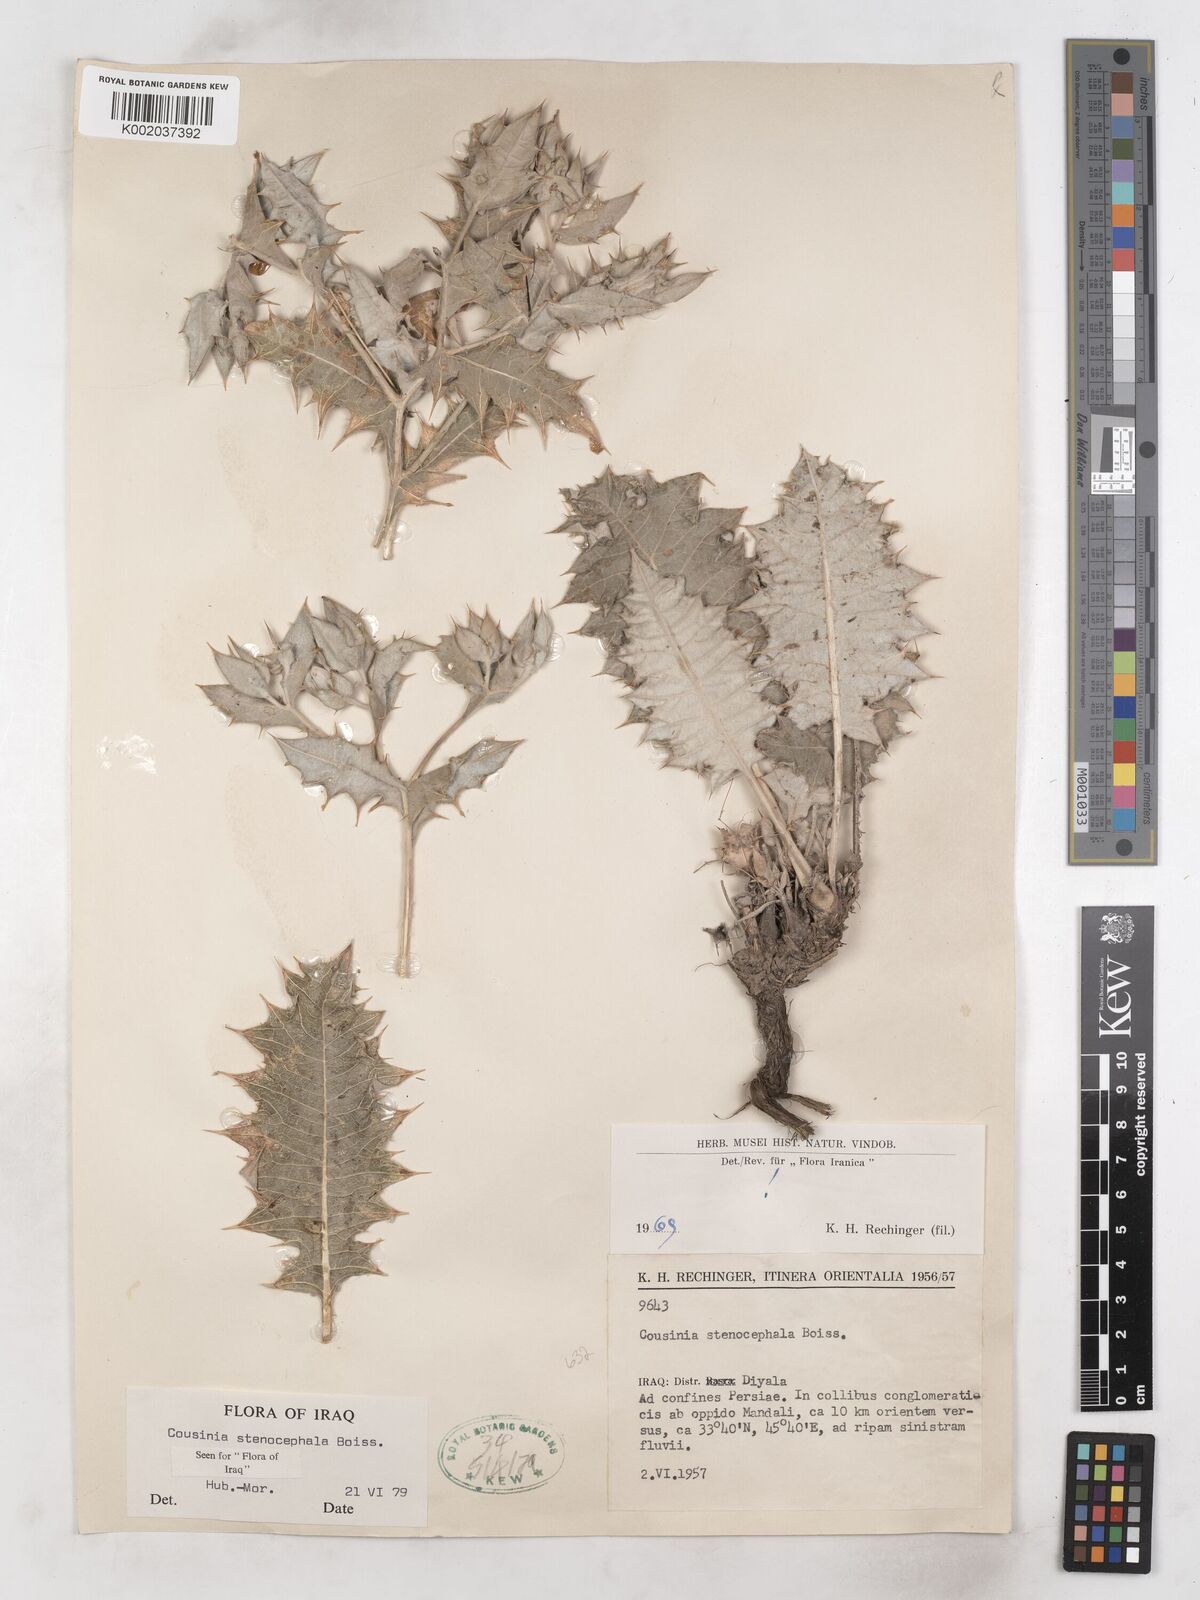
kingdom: Plantae
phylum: Tracheophyta
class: Magnoliopsida
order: Asterales
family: Asteraceae
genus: Cousinia
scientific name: Cousinia stenocephala
